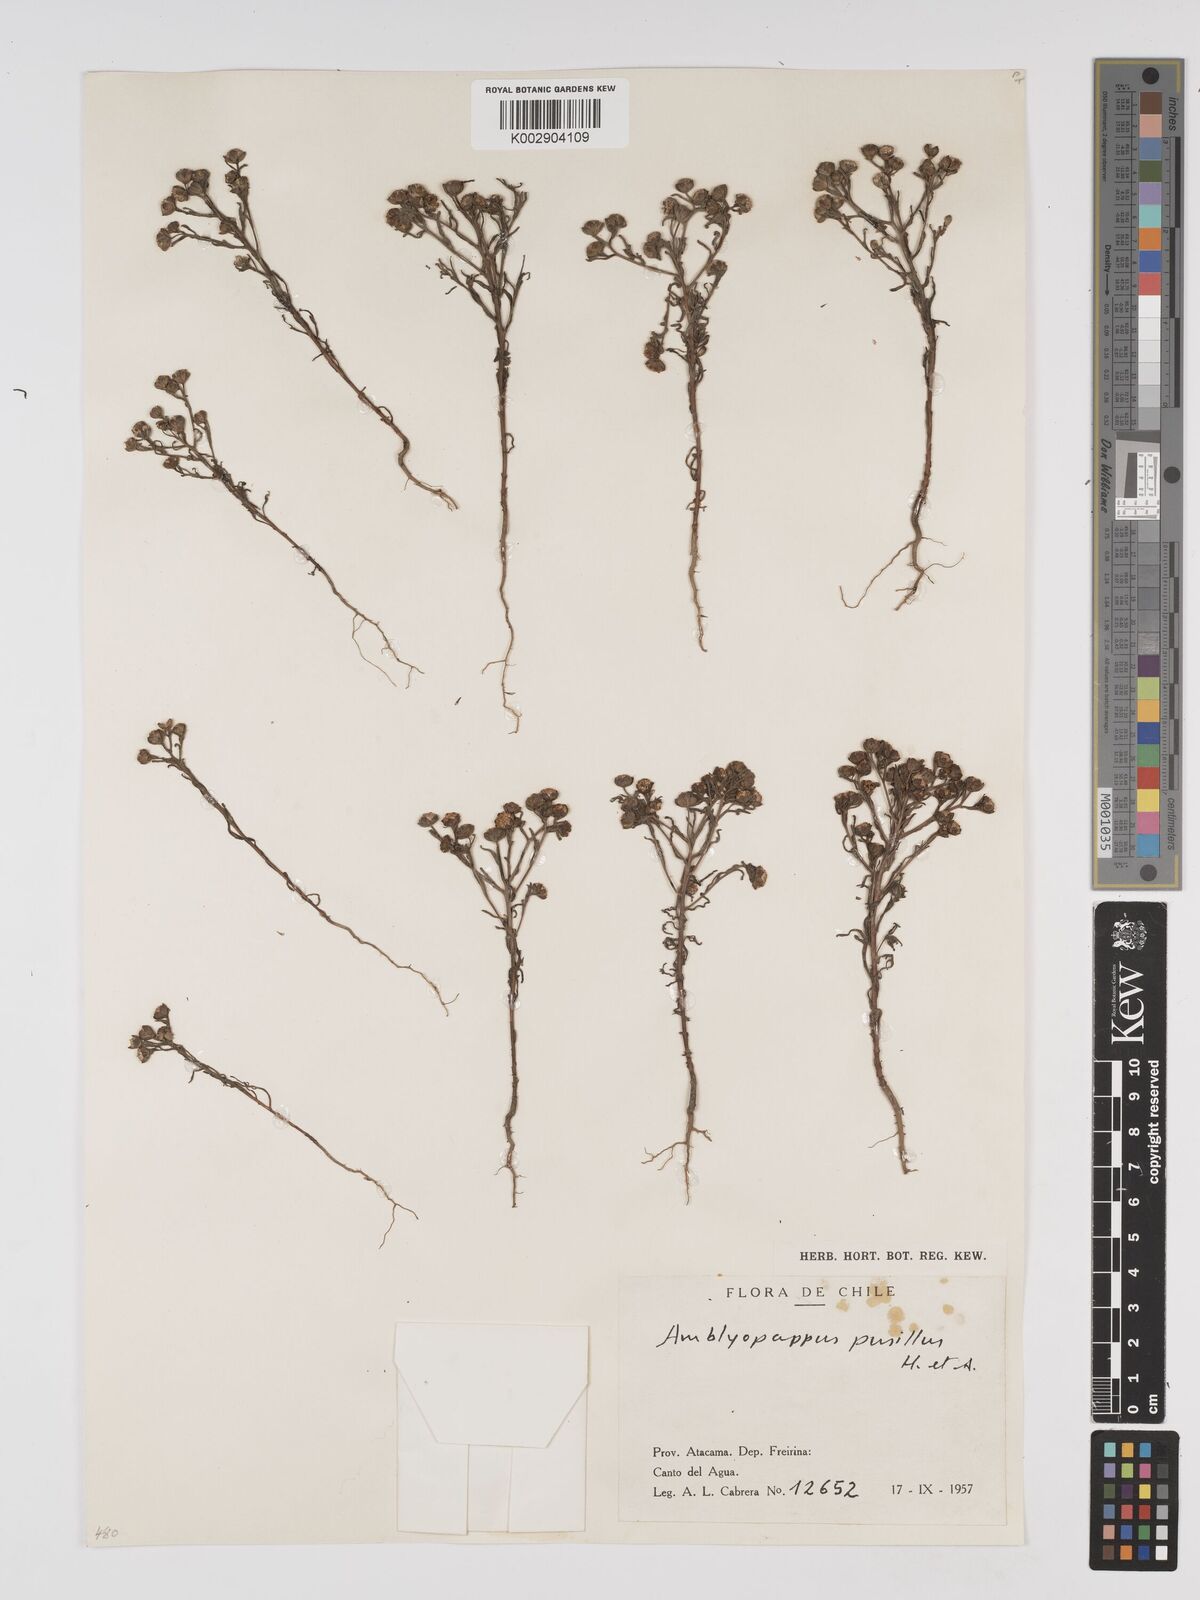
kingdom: Plantae
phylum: Tracheophyta
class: Magnoliopsida
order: Asterales
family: Asteraceae
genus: Amblyopappus
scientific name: Amblyopappus pusillus
